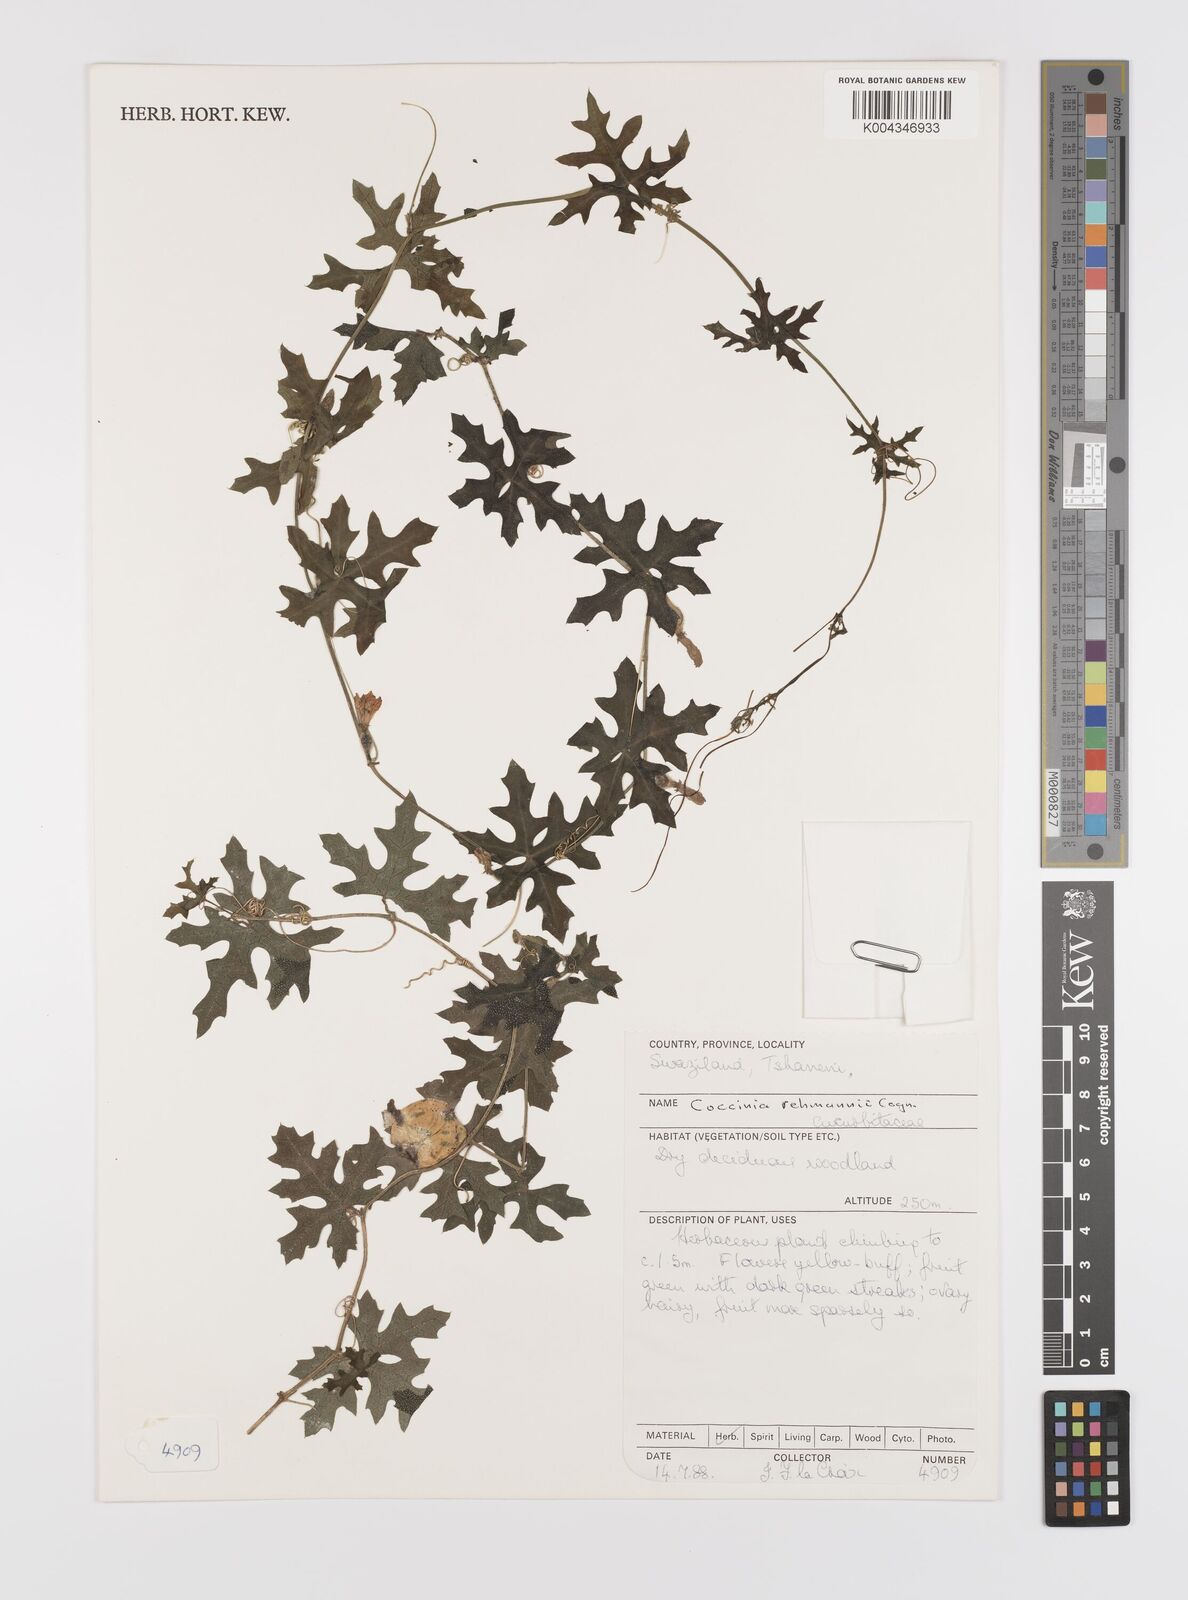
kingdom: Plantae
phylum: Tracheophyta
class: Magnoliopsida
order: Cucurbitales
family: Cucurbitaceae
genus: Coccinia
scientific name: Coccinia rehmannii
